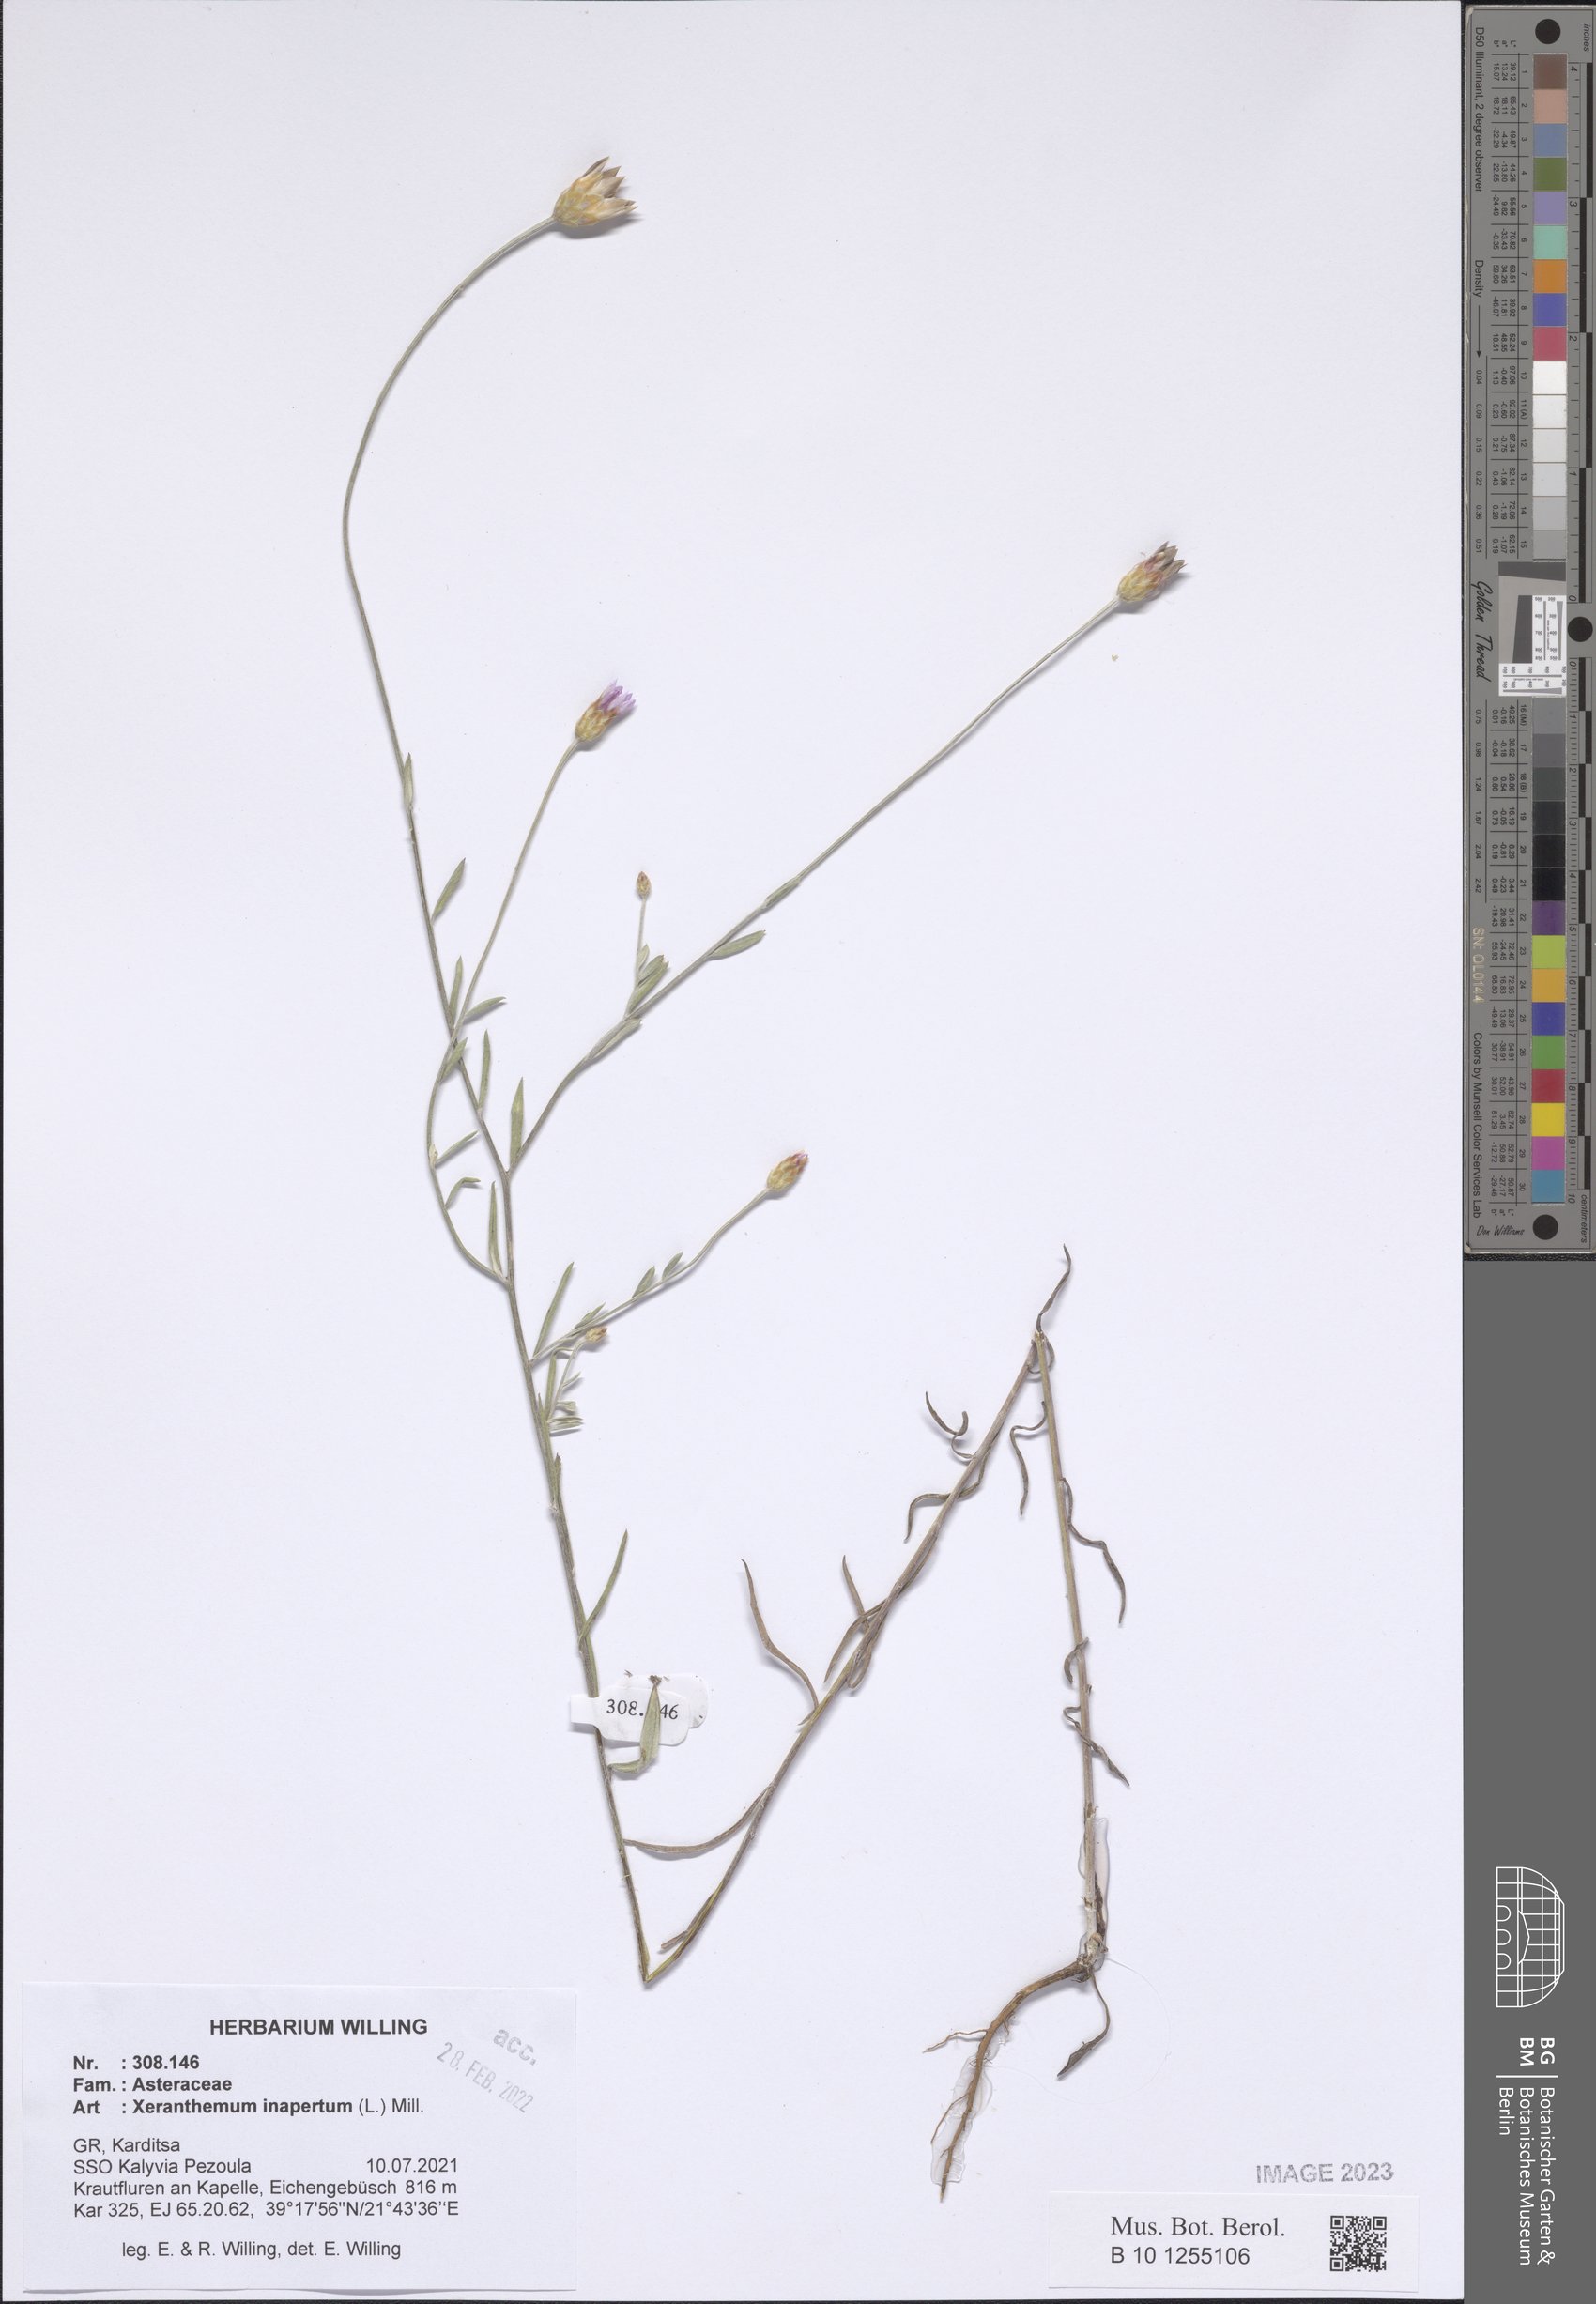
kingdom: Plantae
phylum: Tracheophyta
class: Magnoliopsida
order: Asterales
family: Asteraceae
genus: Xeranthemum
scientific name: Xeranthemum inapertum
